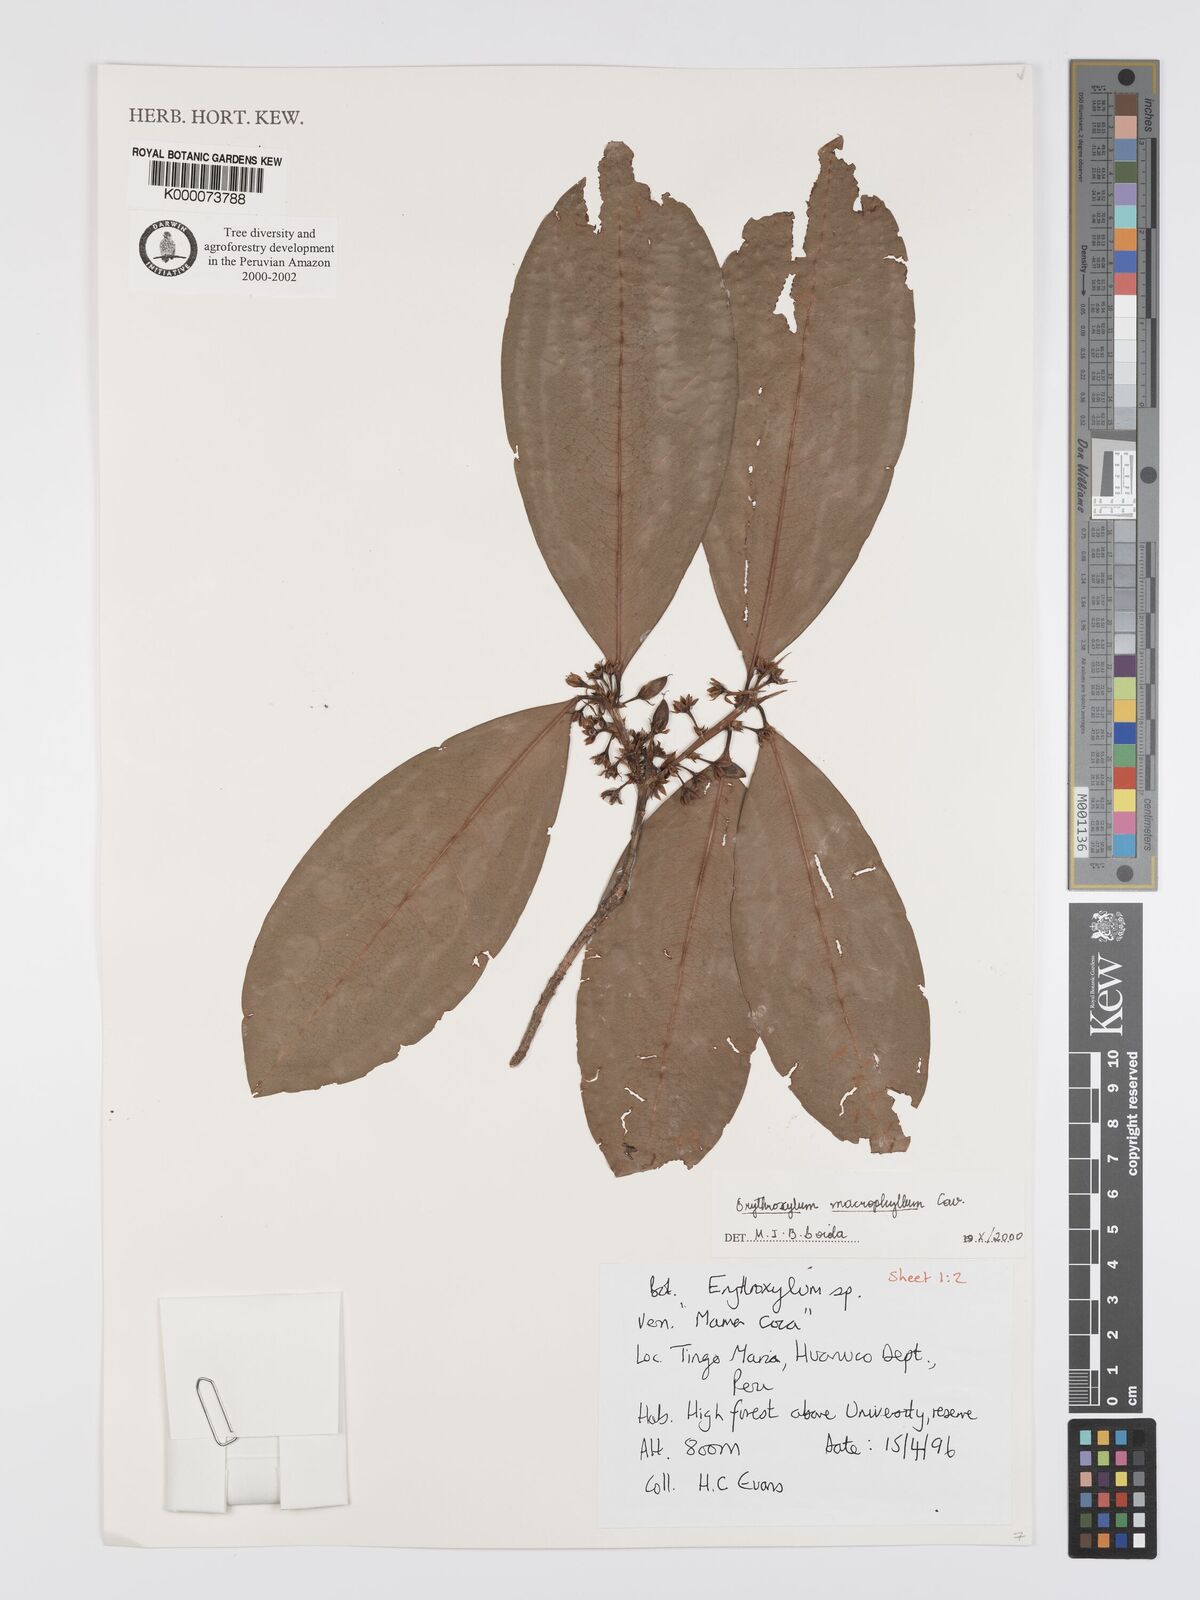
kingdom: Plantae
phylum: Tracheophyta
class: Magnoliopsida
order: Malpighiales
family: Erythroxylaceae
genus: Erythroxylum
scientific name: Erythroxylum
